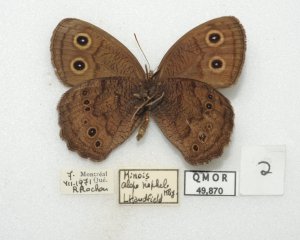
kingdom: Animalia
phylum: Arthropoda
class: Insecta
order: Lepidoptera
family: Nymphalidae
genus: Cercyonis
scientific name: Cercyonis pegala
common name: Common Wood-Nymph
